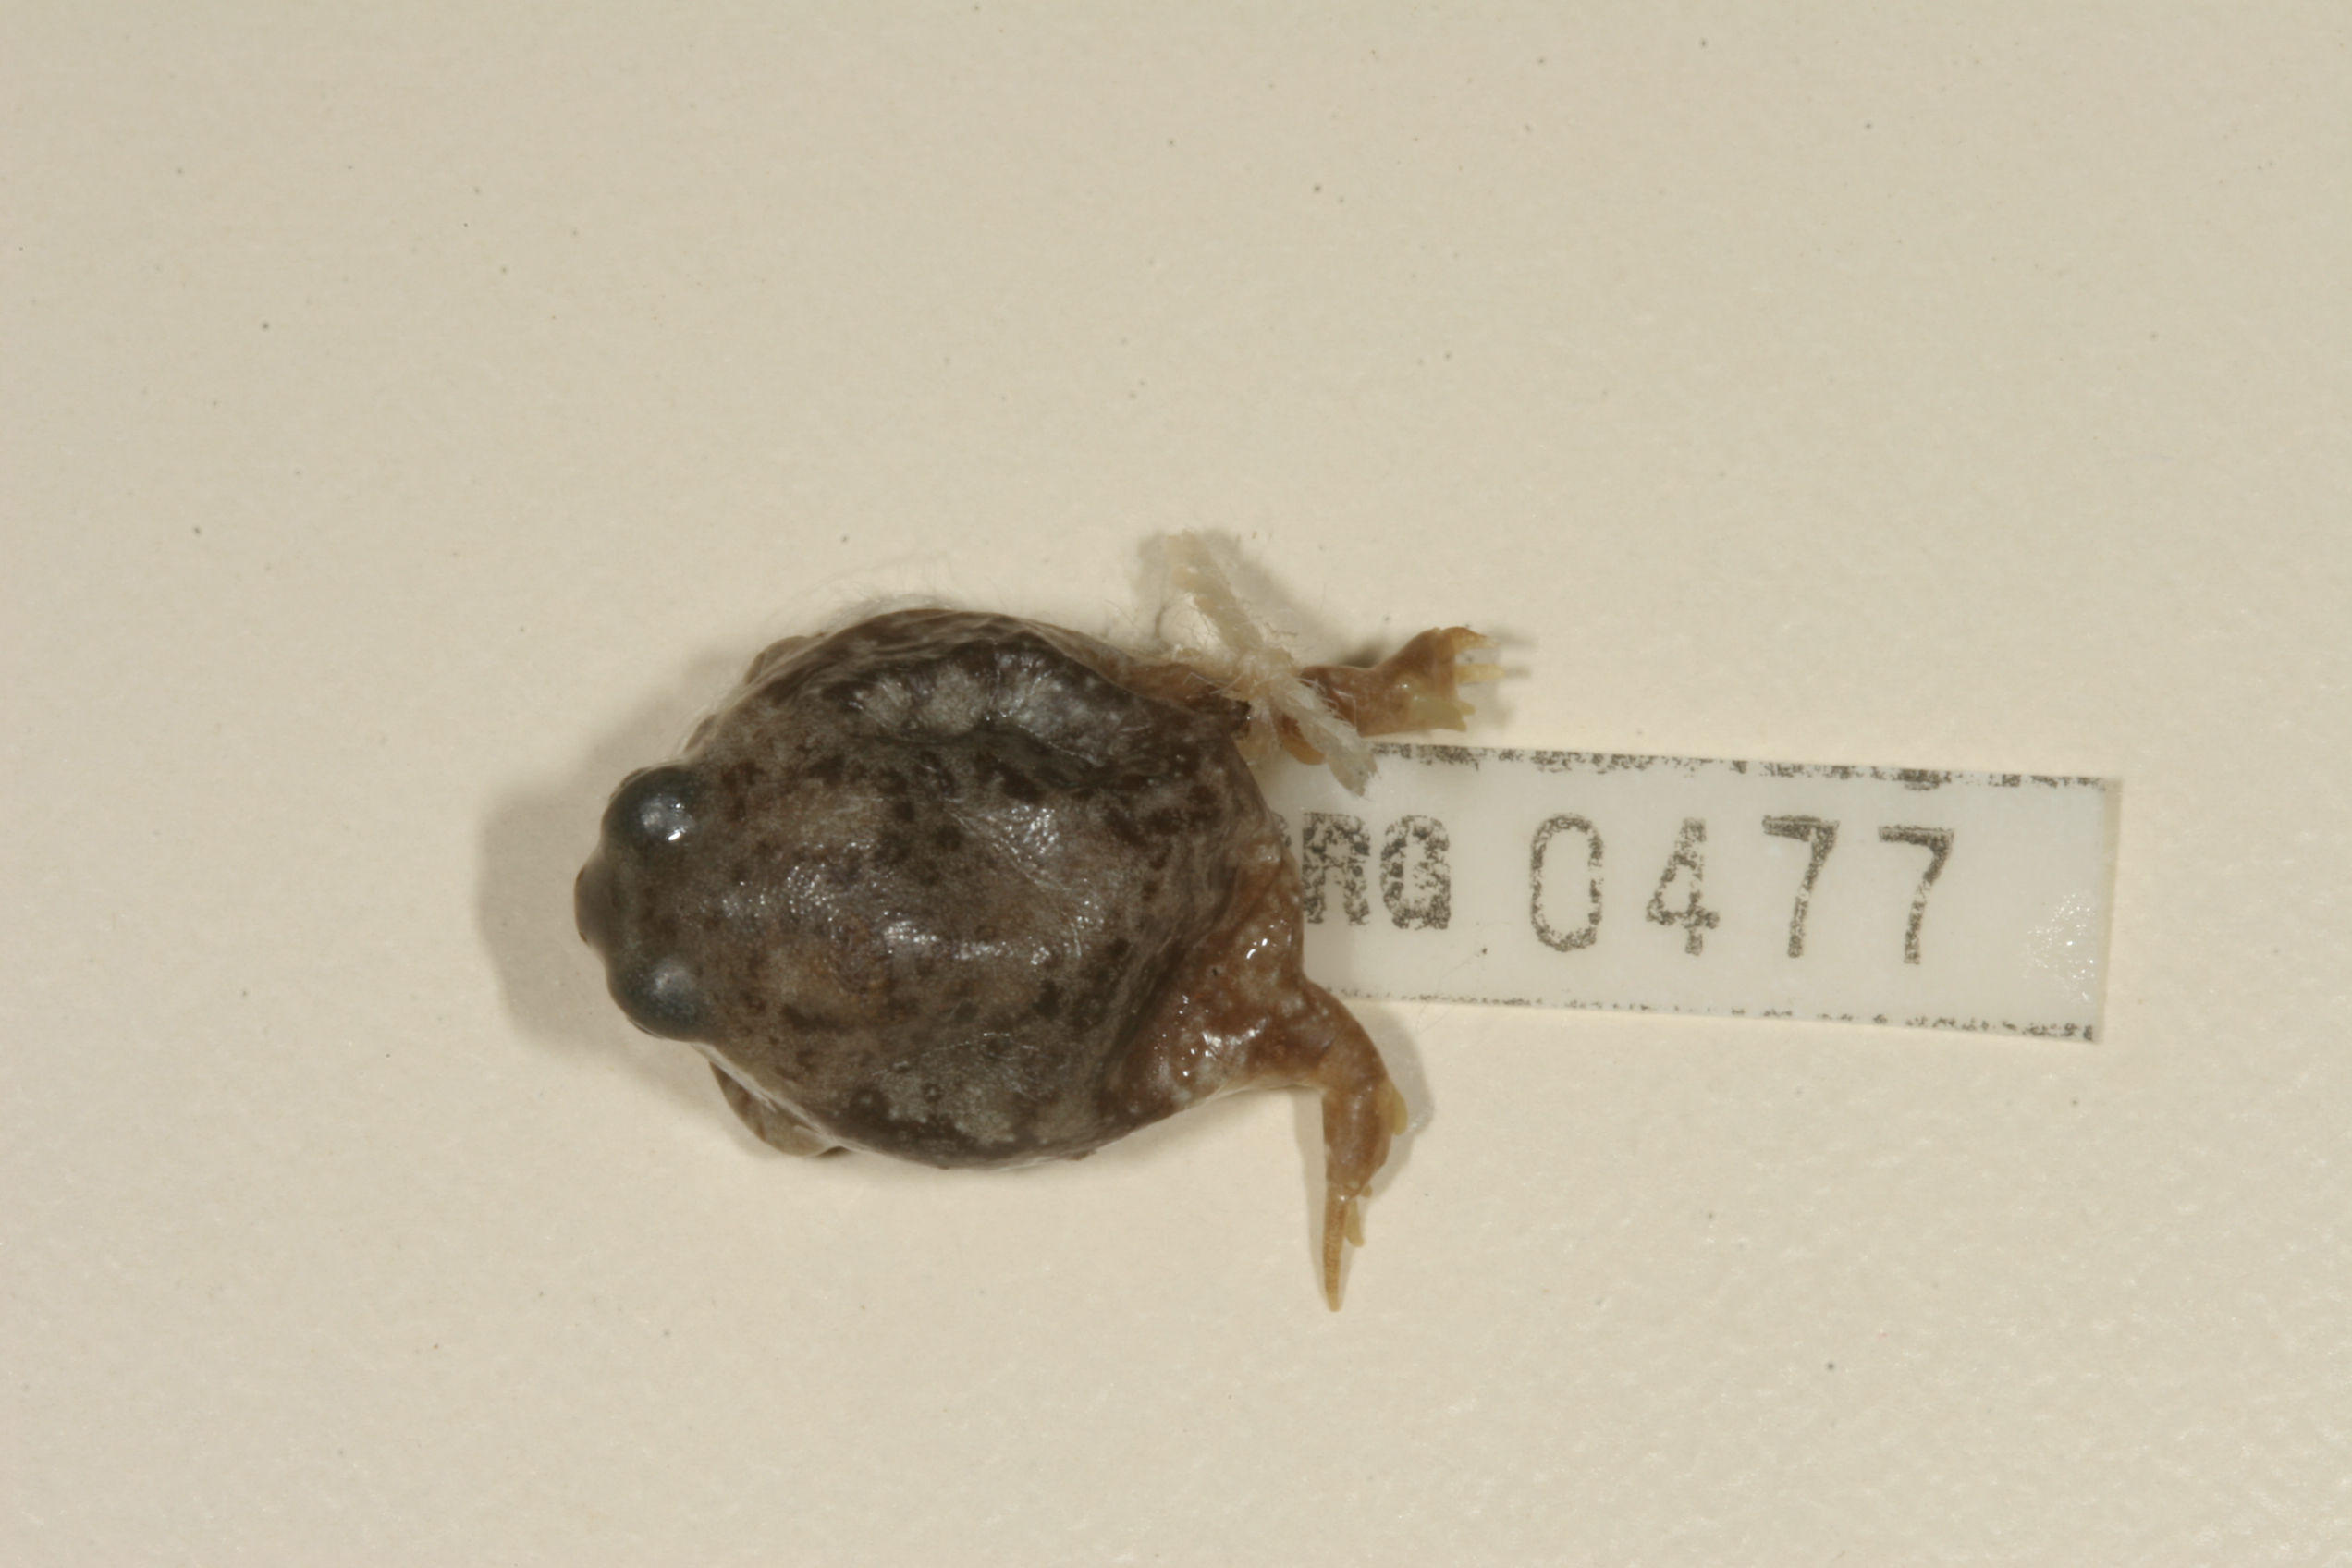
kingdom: Animalia
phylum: Chordata
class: Amphibia
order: Anura
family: Brevicipitidae
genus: Breviceps
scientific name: Breviceps adspersus
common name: Common rain frog
